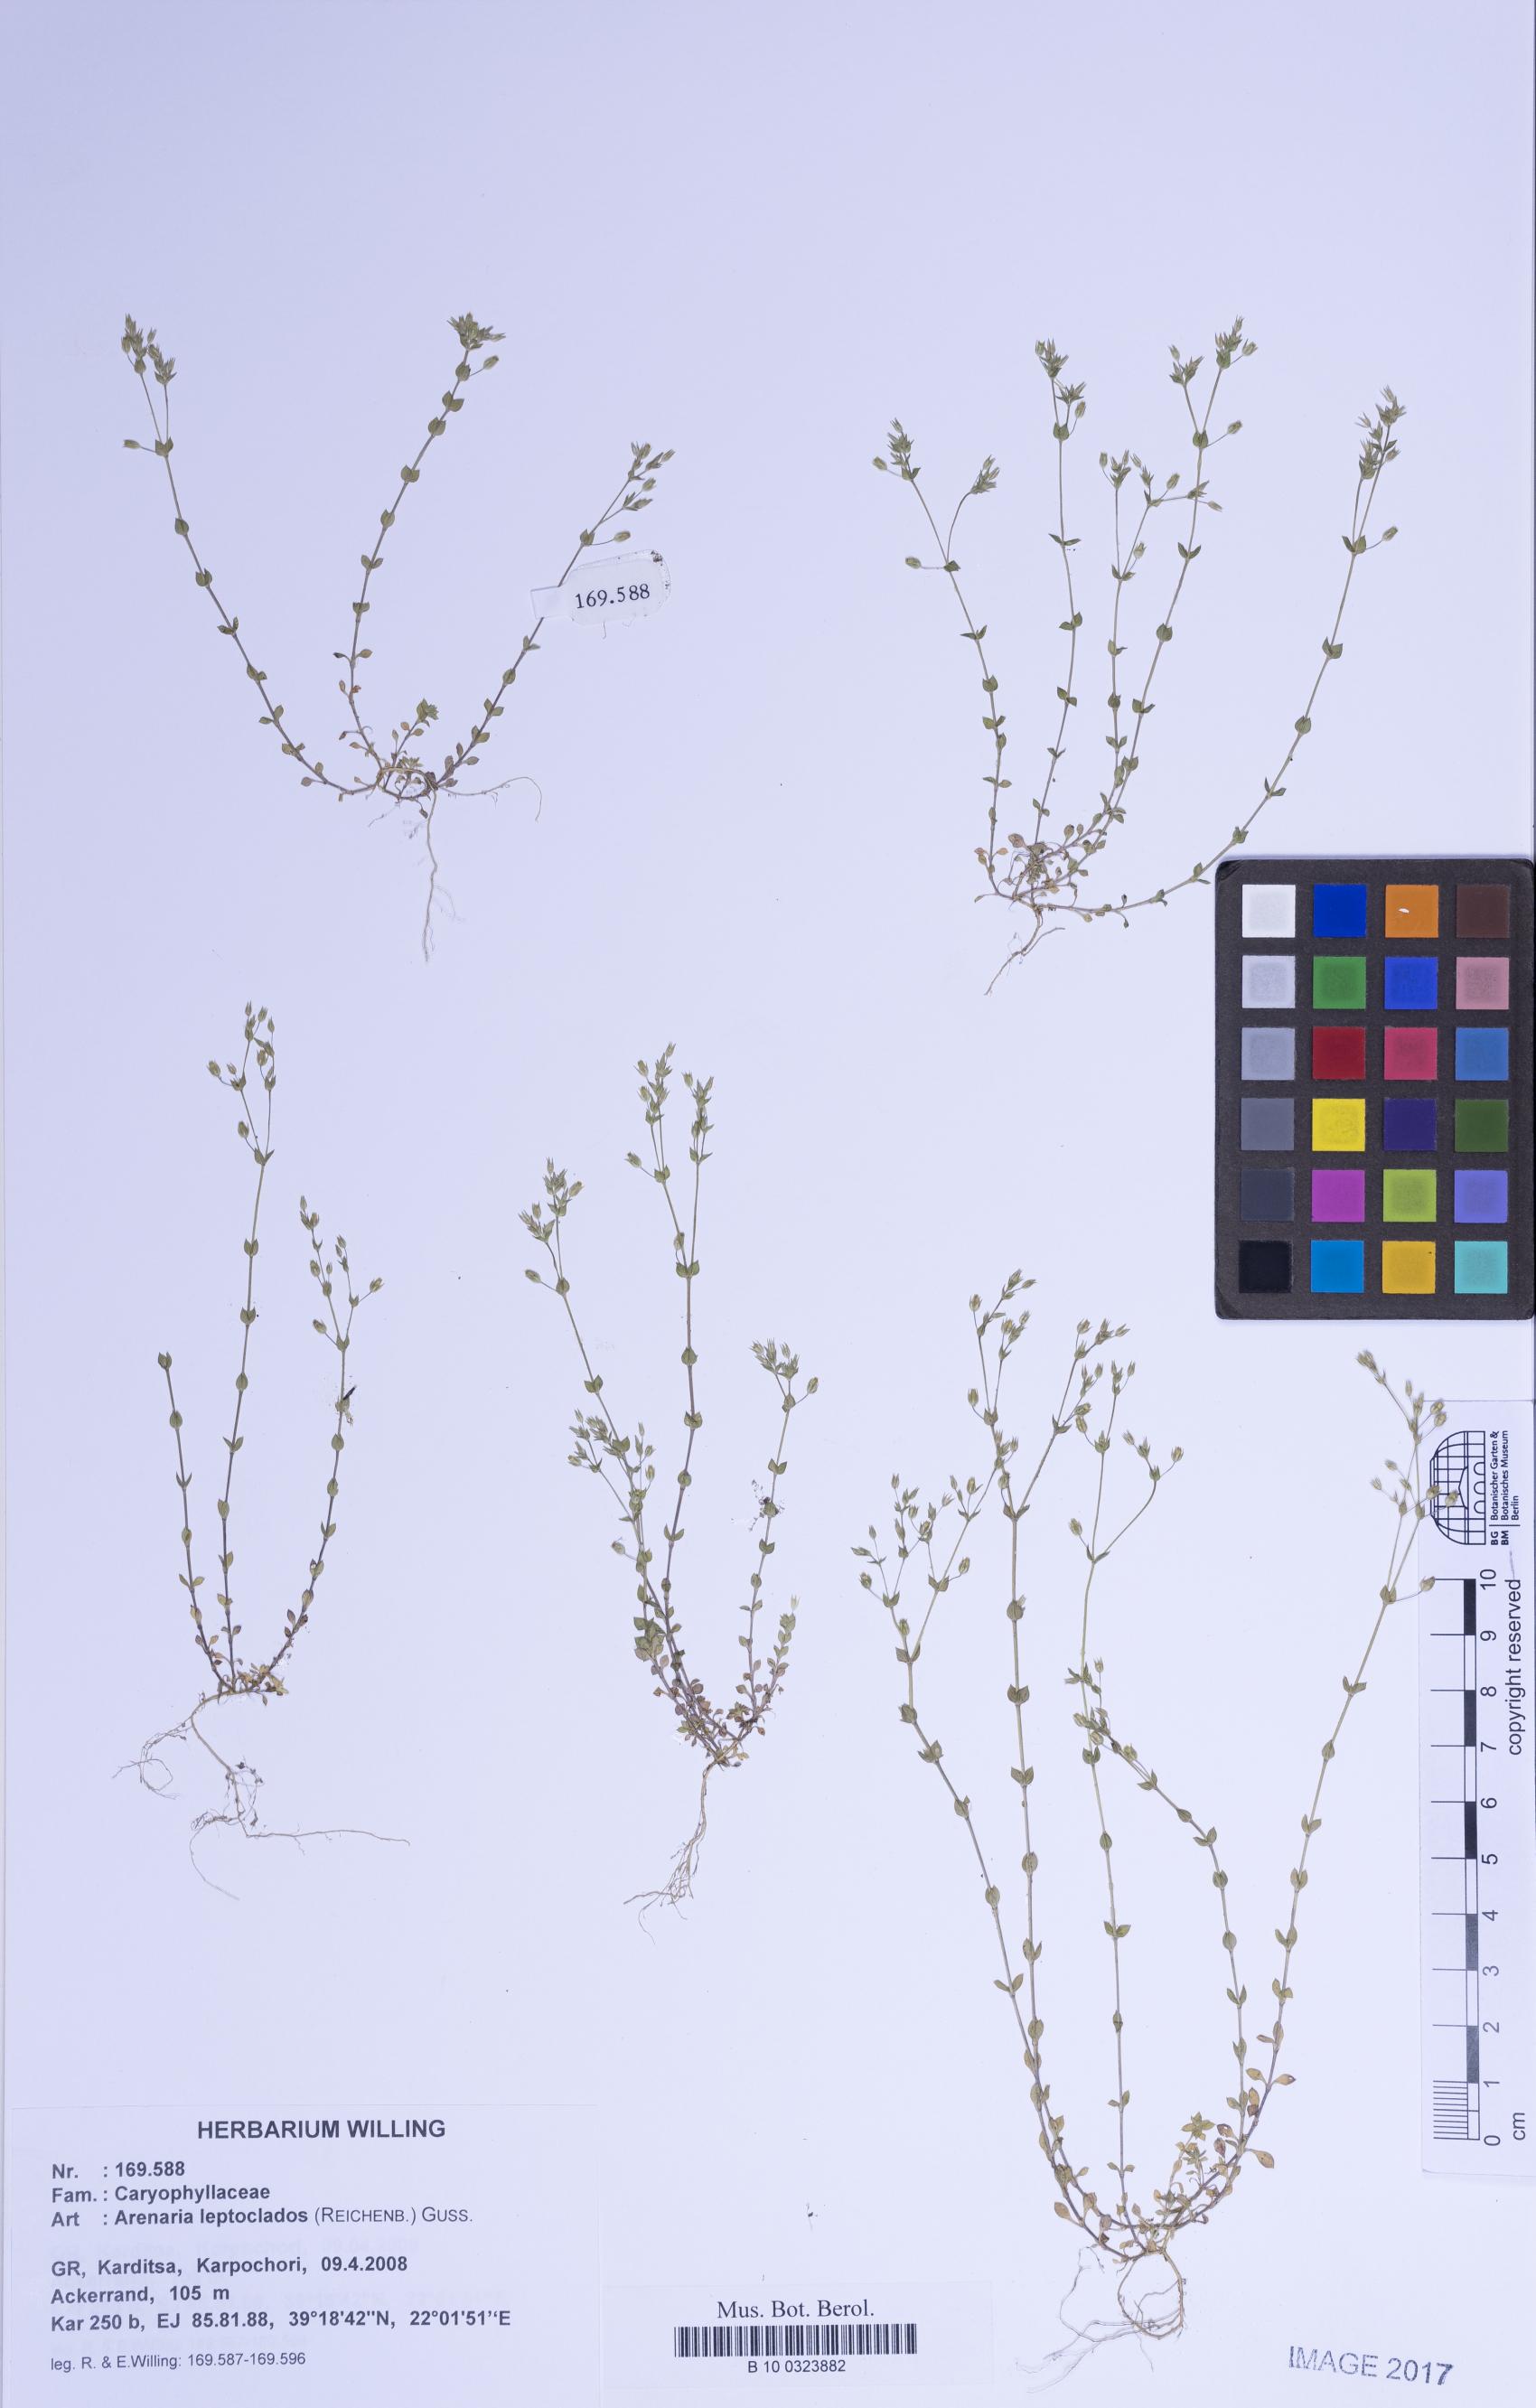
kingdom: Plantae
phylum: Tracheophyta
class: Magnoliopsida
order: Caryophyllales
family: Caryophyllaceae
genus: Arenaria
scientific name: Arenaria leptoclados
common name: Thyme-leaved sandwort
